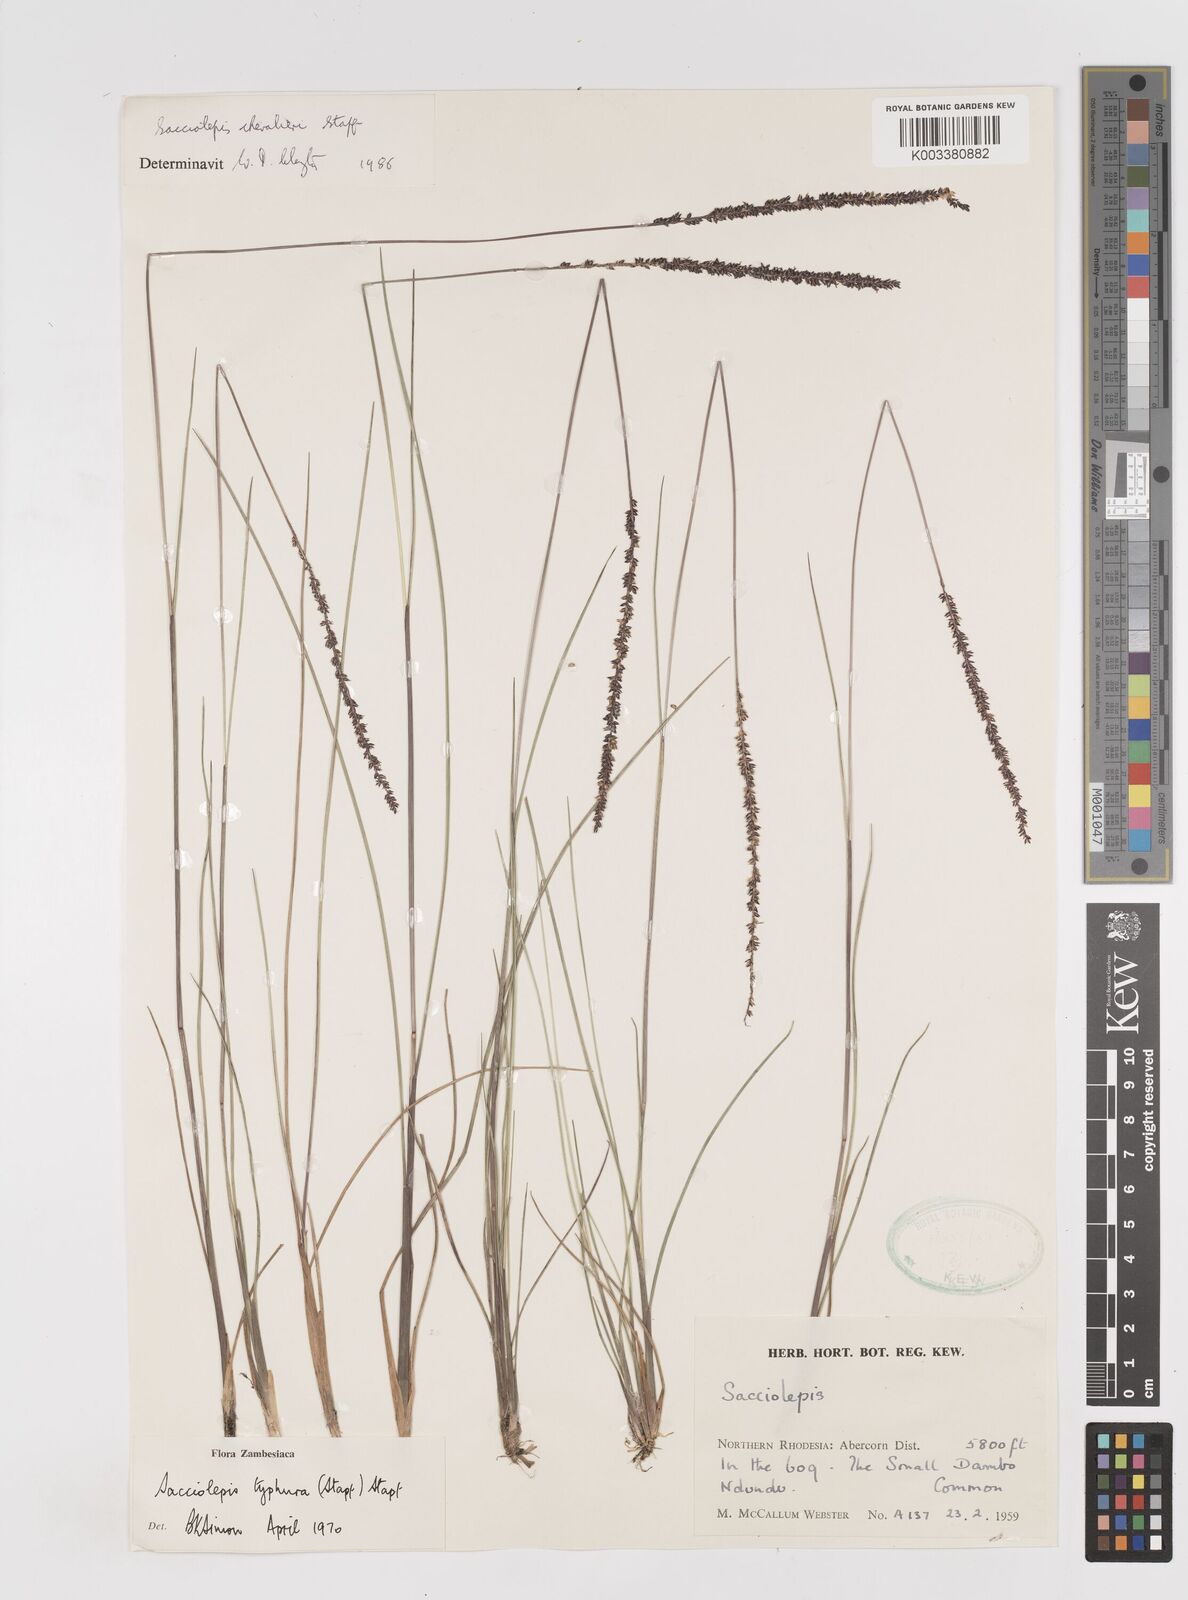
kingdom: Plantae
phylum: Tracheophyta
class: Liliopsida
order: Poales
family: Poaceae
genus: Sacciolepis
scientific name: Sacciolepis chevalieri
